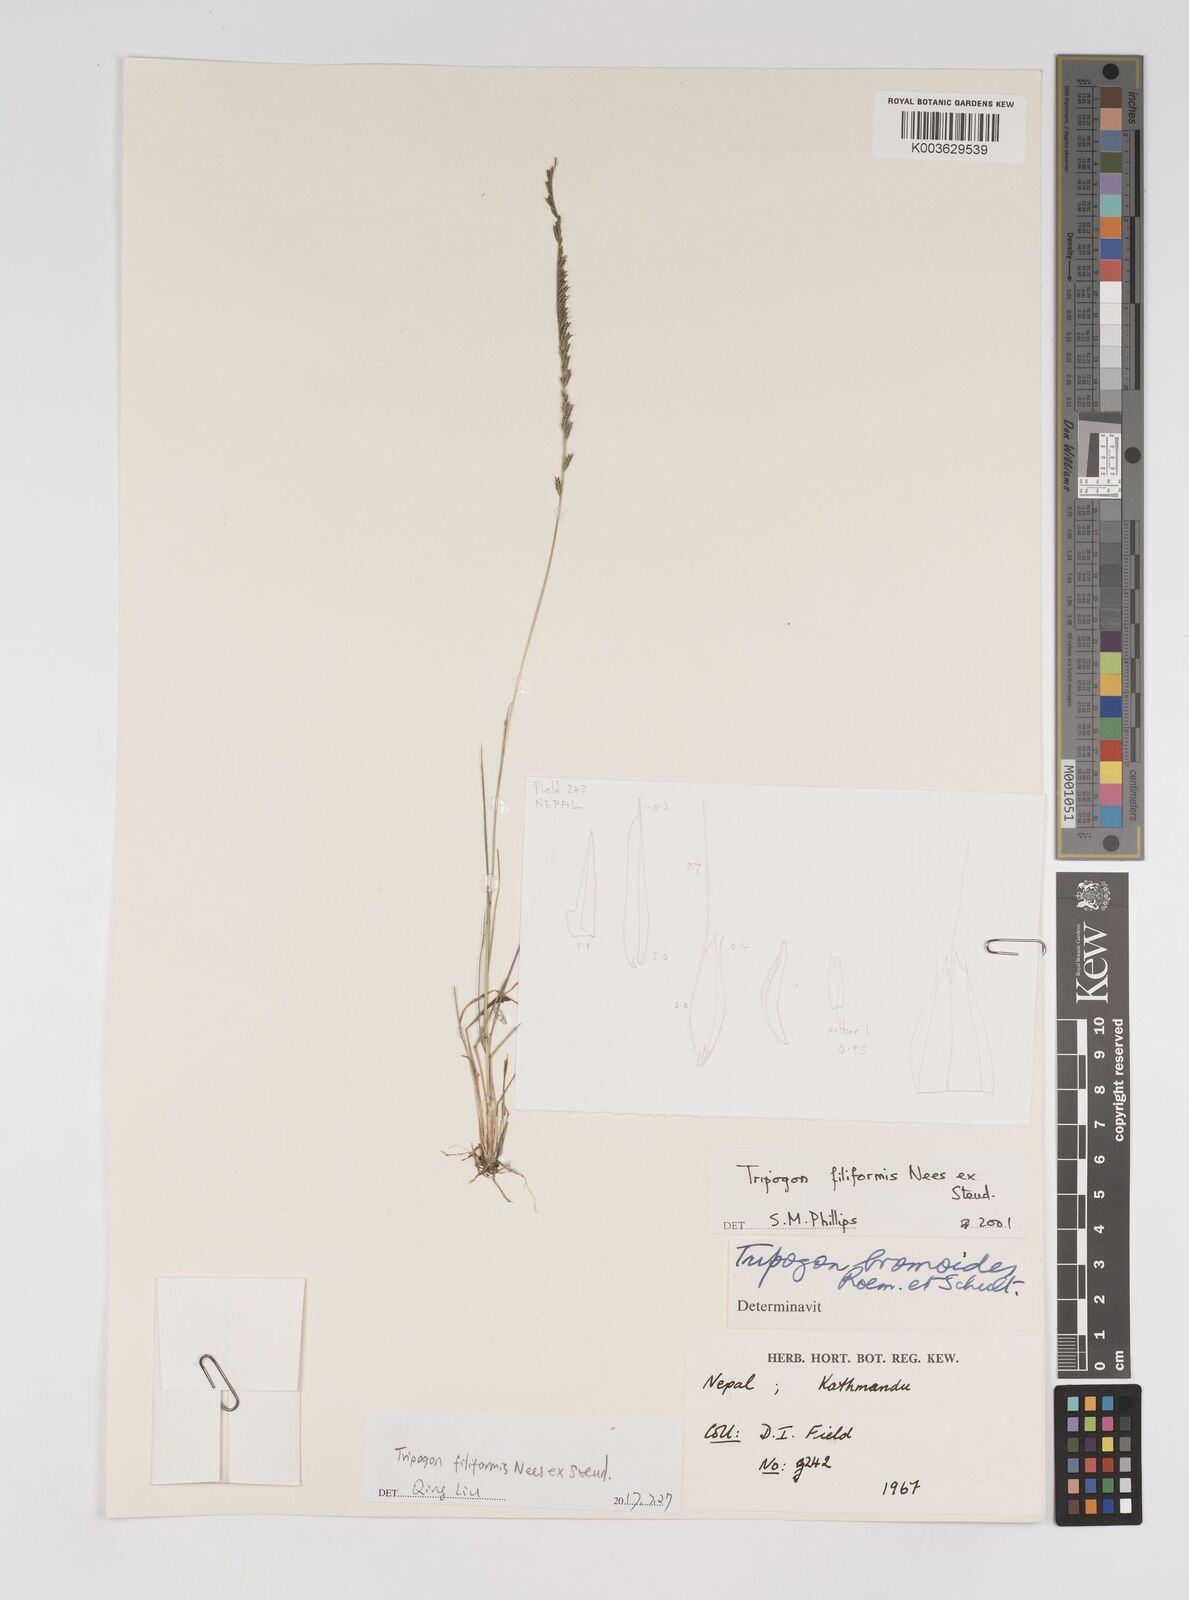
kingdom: Plantae
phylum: Tracheophyta
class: Liliopsida
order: Poales
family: Poaceae
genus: Tripogon
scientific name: Tripogon filiformis
